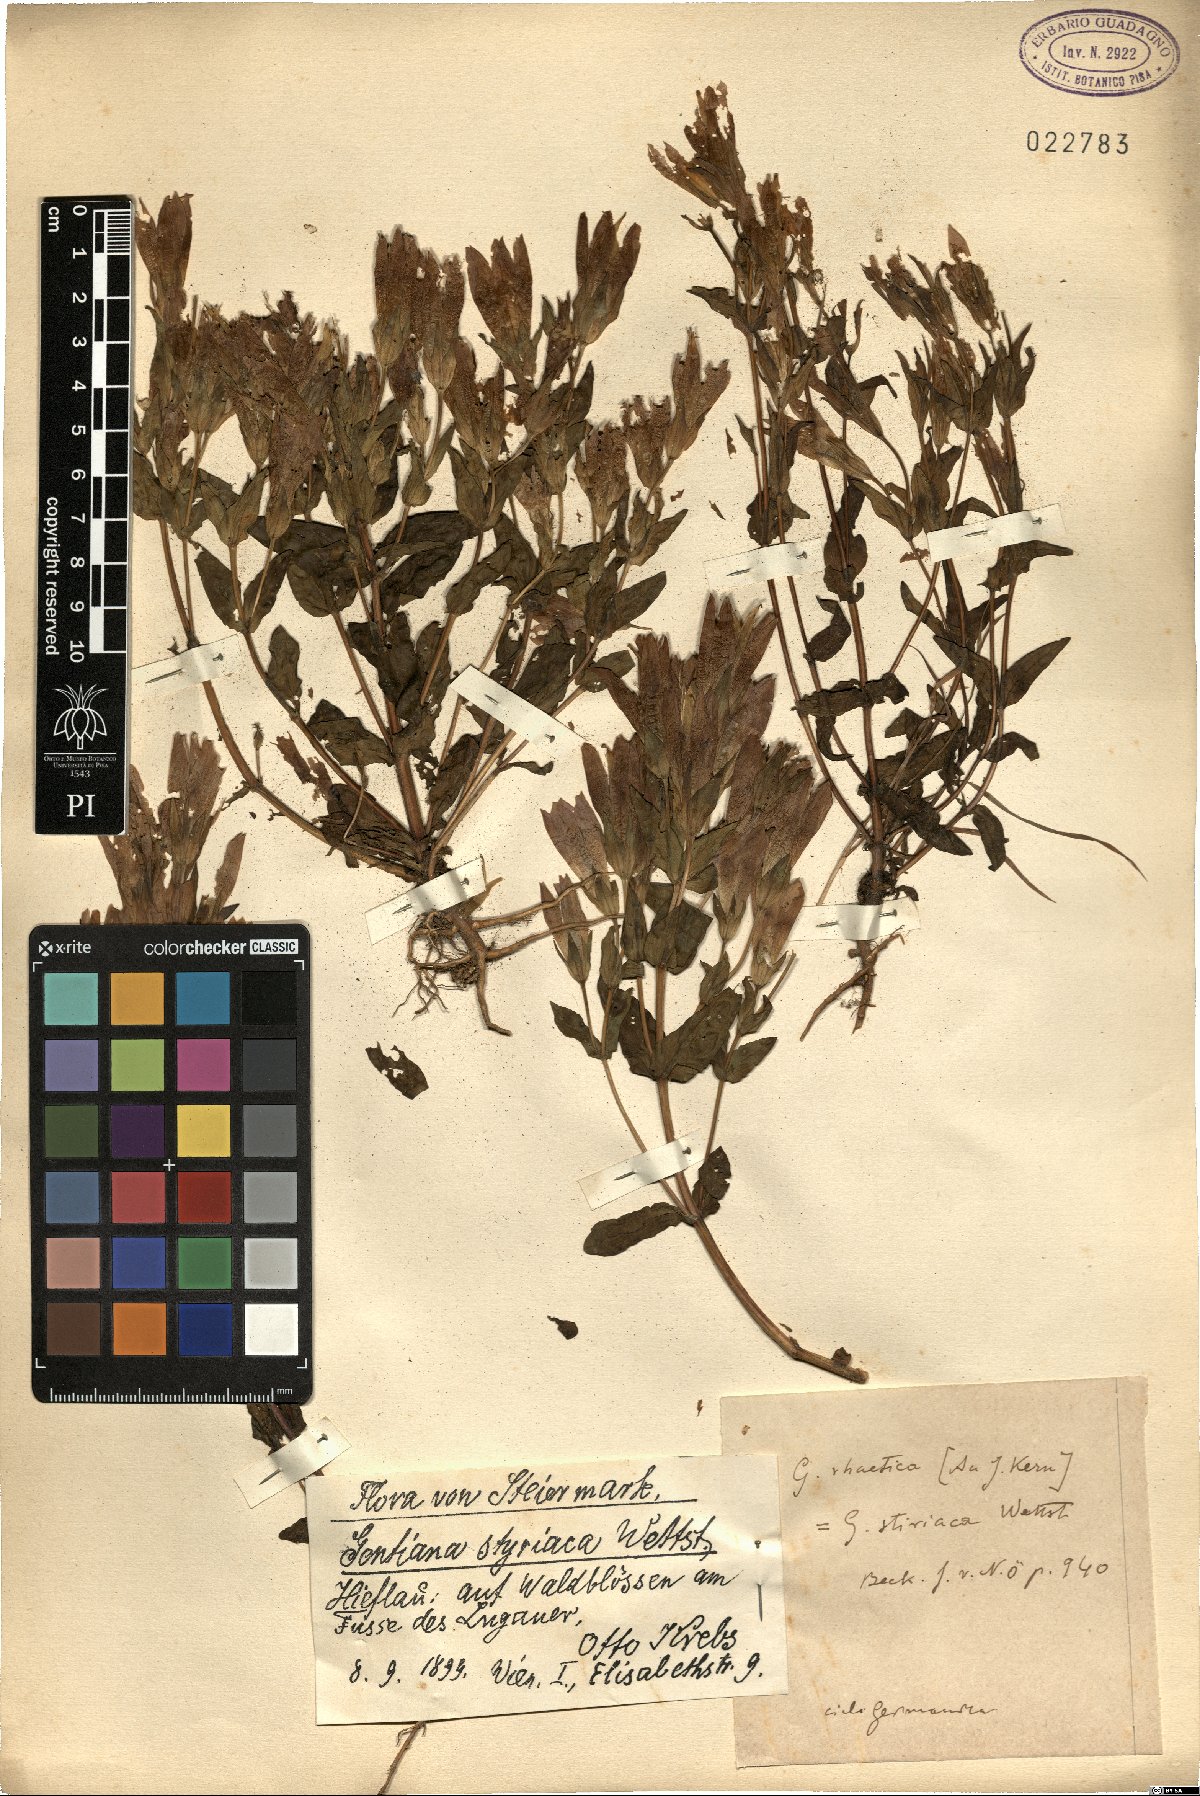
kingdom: Plantae
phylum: Tracheophyta
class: Magnoliopsida
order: Gentianales
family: Gentianaceae
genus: Gentianella
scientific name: Gentianella rhaetica
